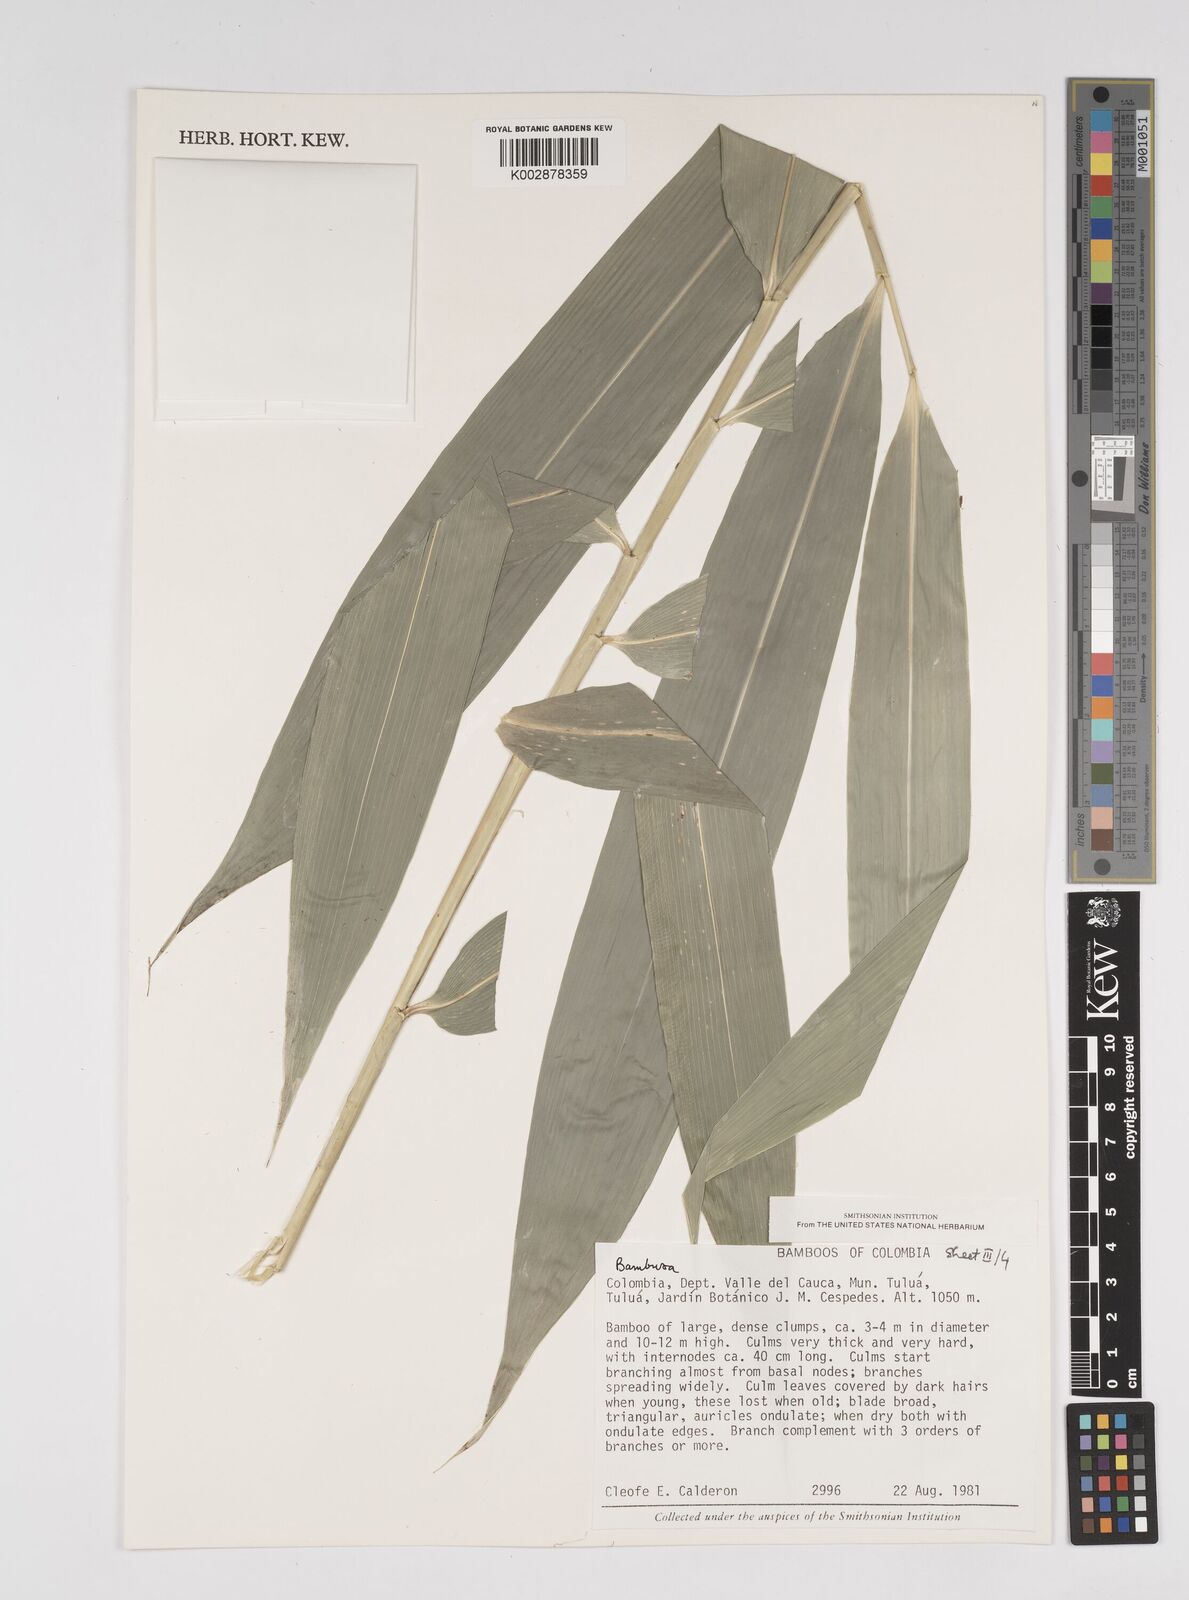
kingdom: Plantae
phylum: Tracheophyta
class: Liliopsida
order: Poales
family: Poaceae
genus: Bambusa
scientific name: Bambusa nutans
